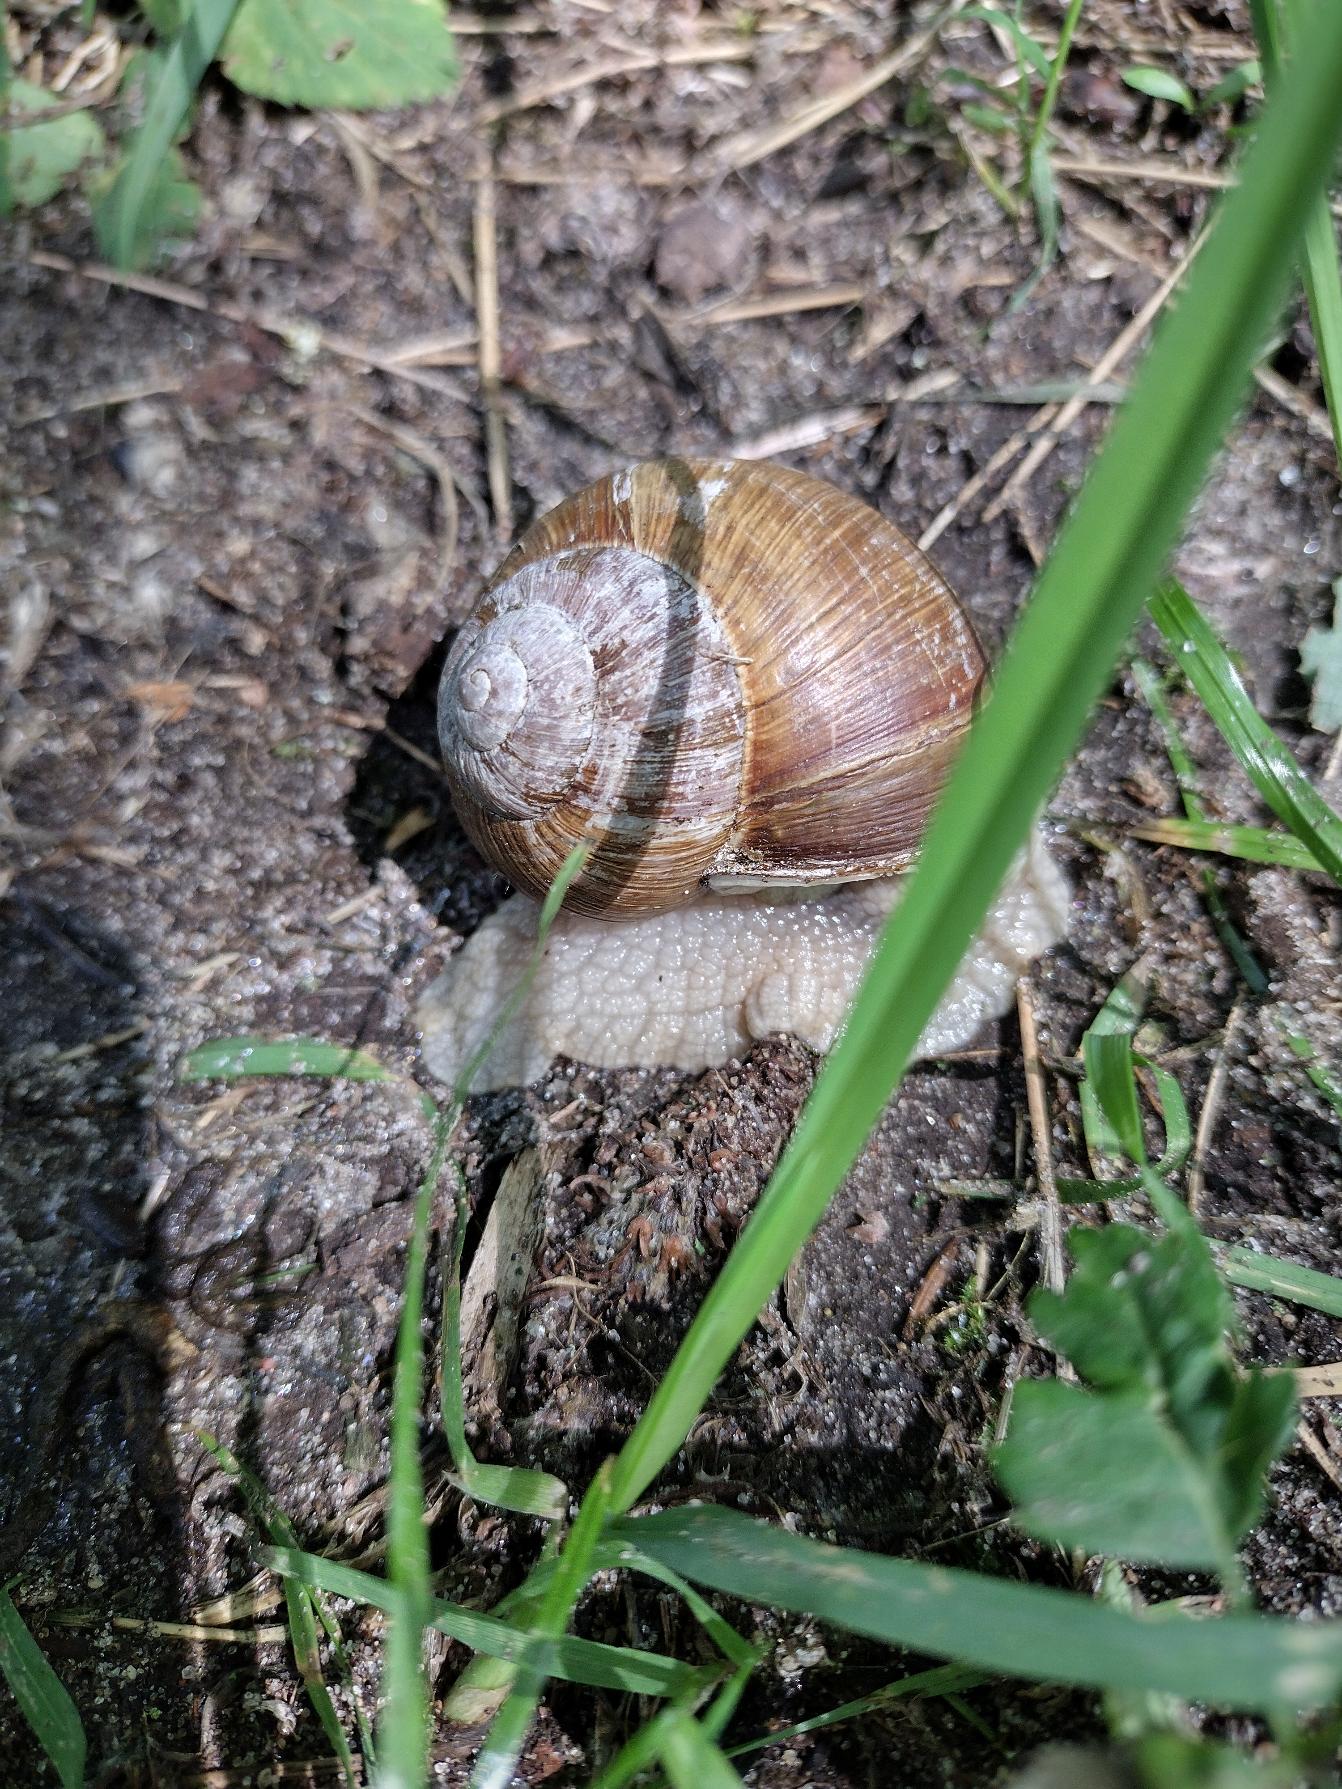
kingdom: Animalia
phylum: Mollusca
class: Gastropoda
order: Stylommatophora
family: Helicidae
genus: Helix
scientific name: Helix pomatia
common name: Vinbjergsnegl
